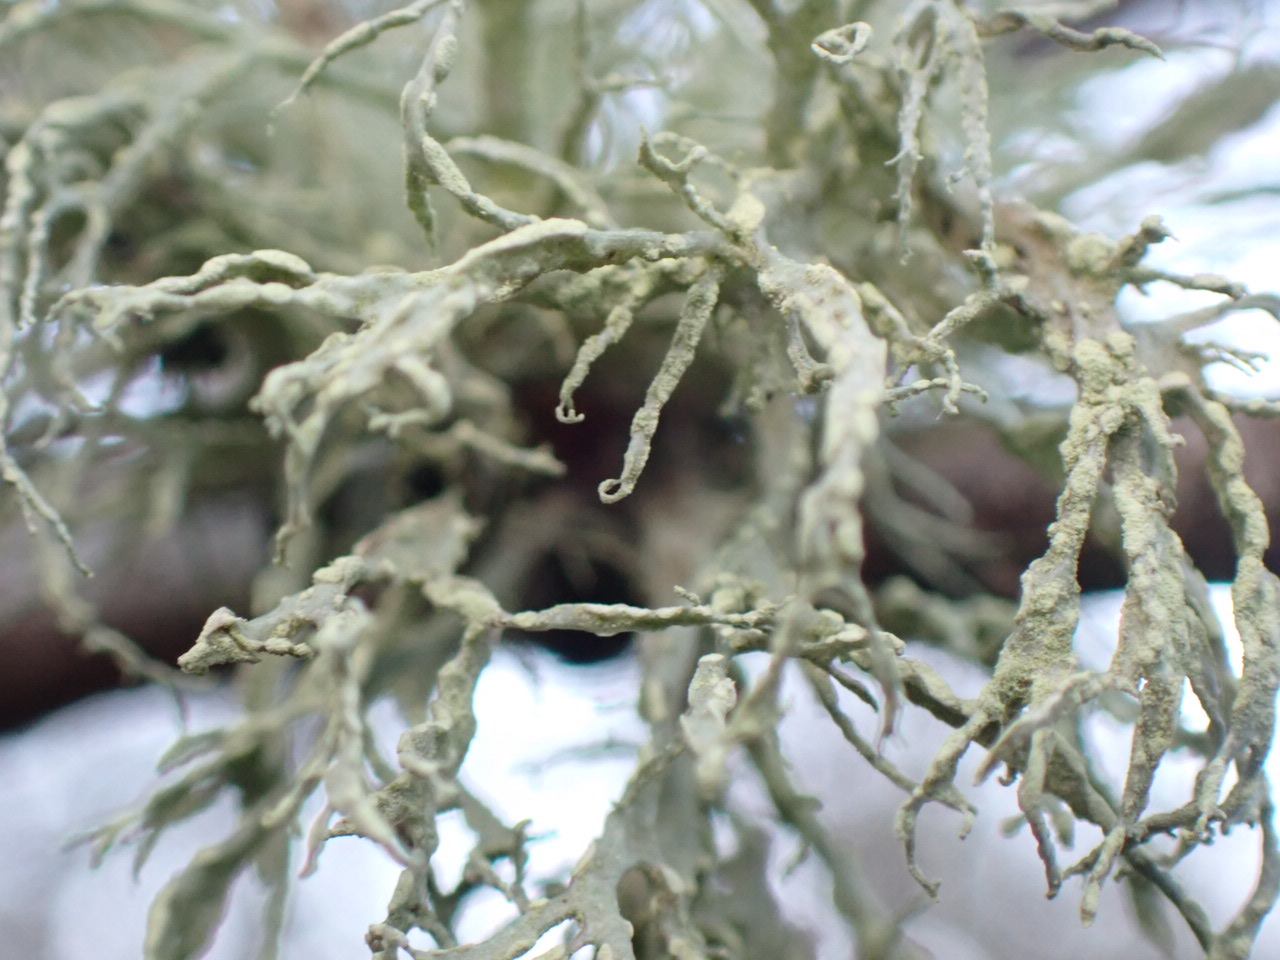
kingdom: Fungi
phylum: Ascomycota
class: Lecanoromycetes
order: Lecanorales
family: Ramalinaceae
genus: Ramalina
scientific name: Ramalina farinacea
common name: melet grenlav
